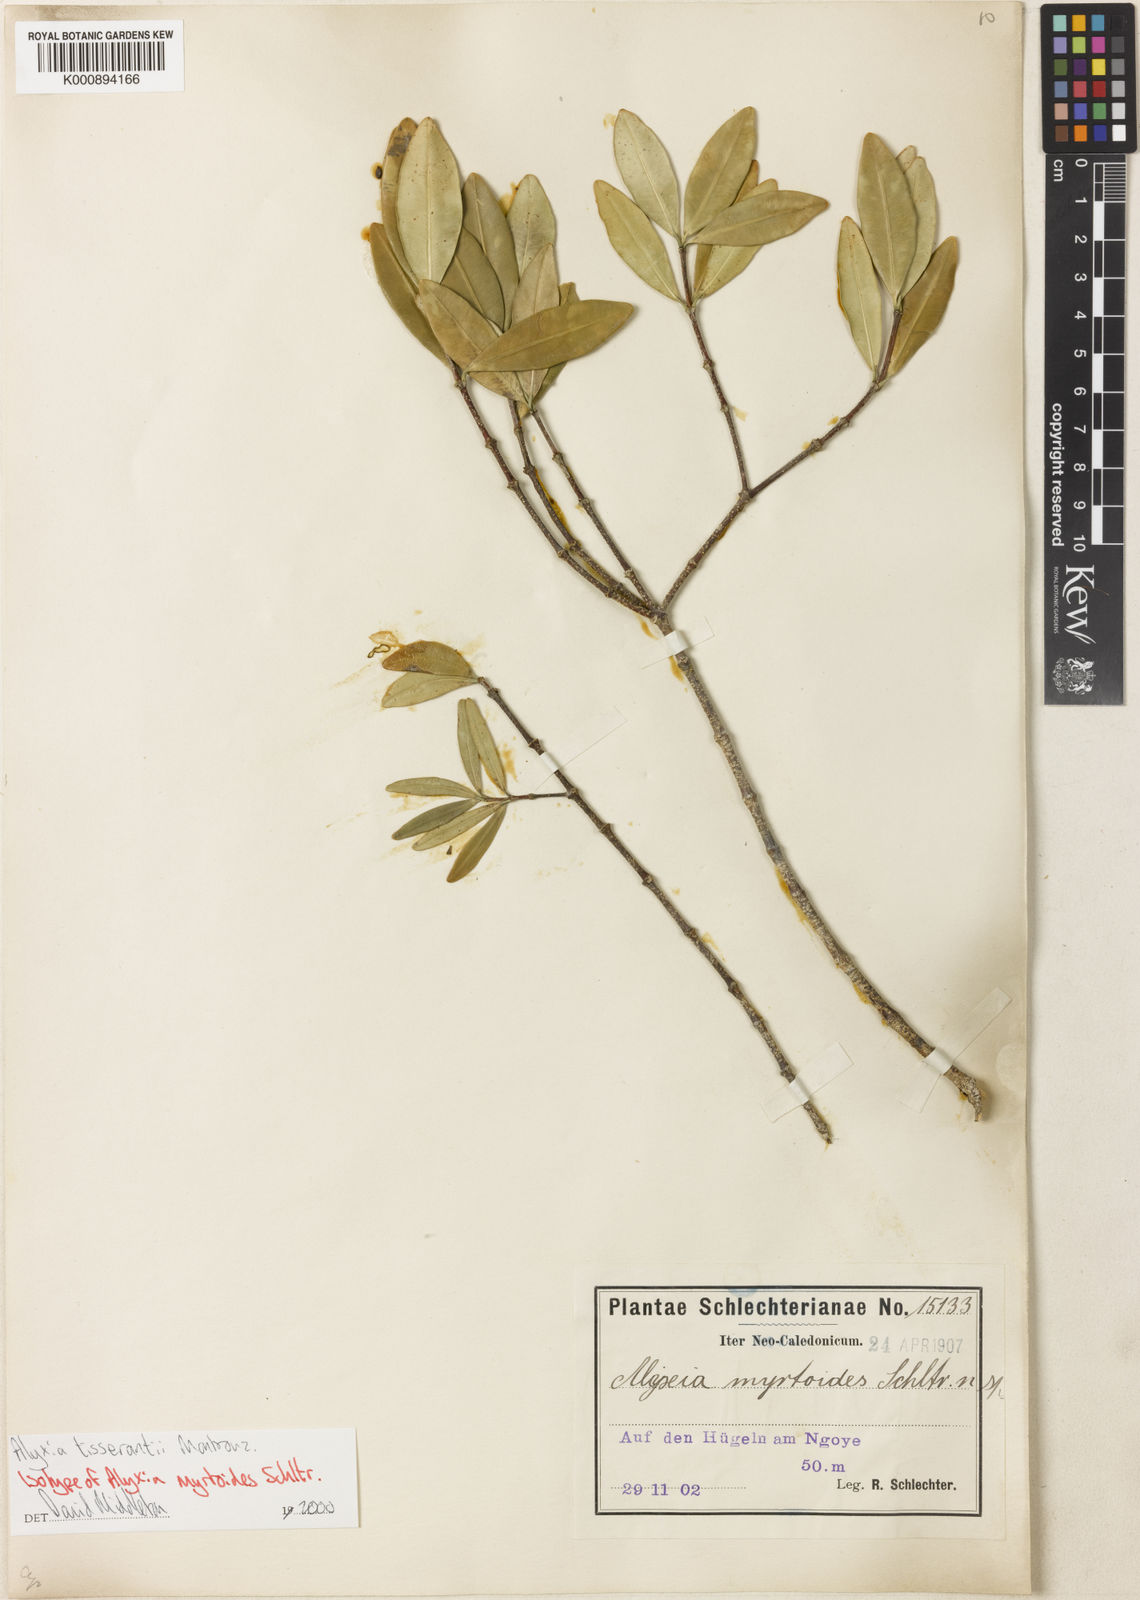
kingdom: Plantae
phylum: Tracheophyta
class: Magnoliopsida
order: Gentianales
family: Apocynaceae
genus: Alyxia
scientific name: Alyxia tisserantii
